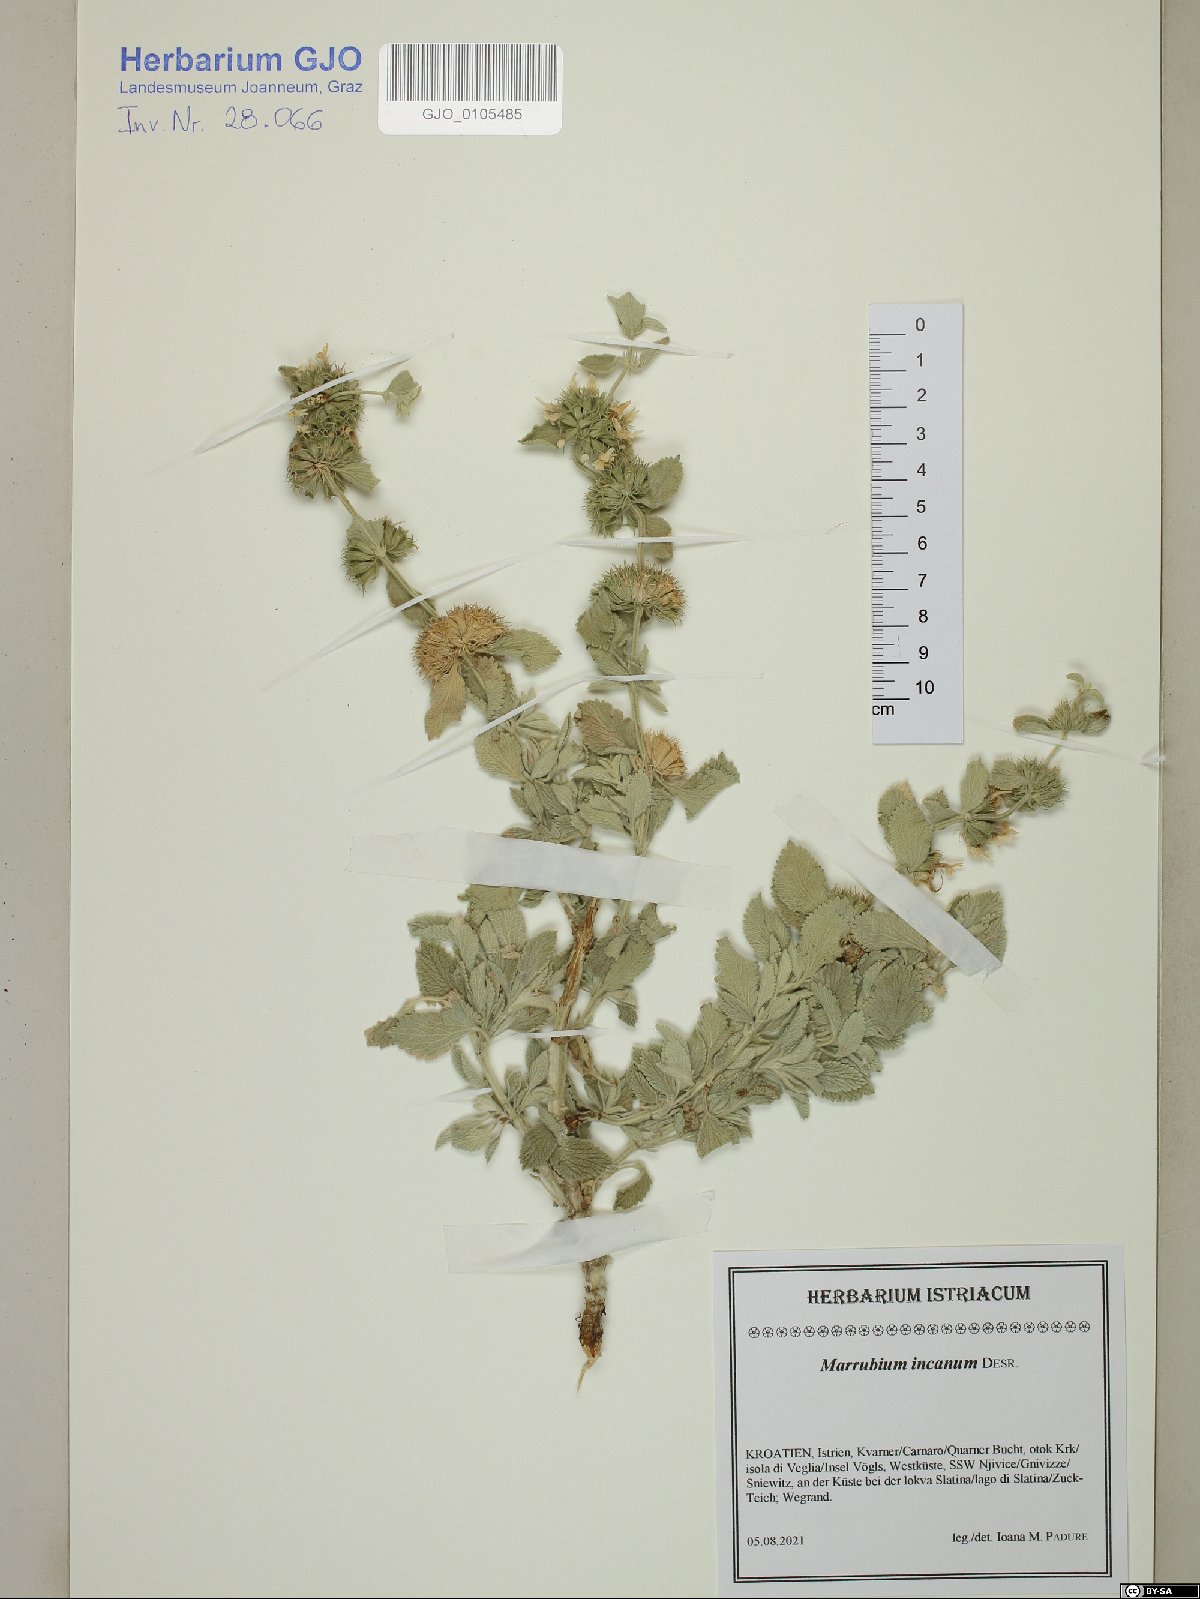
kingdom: Plantae
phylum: Tracheophyta
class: Magnoliopsida
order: Lamiales
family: Lamiaceae
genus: Marrubium
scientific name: Marrubium incanum
